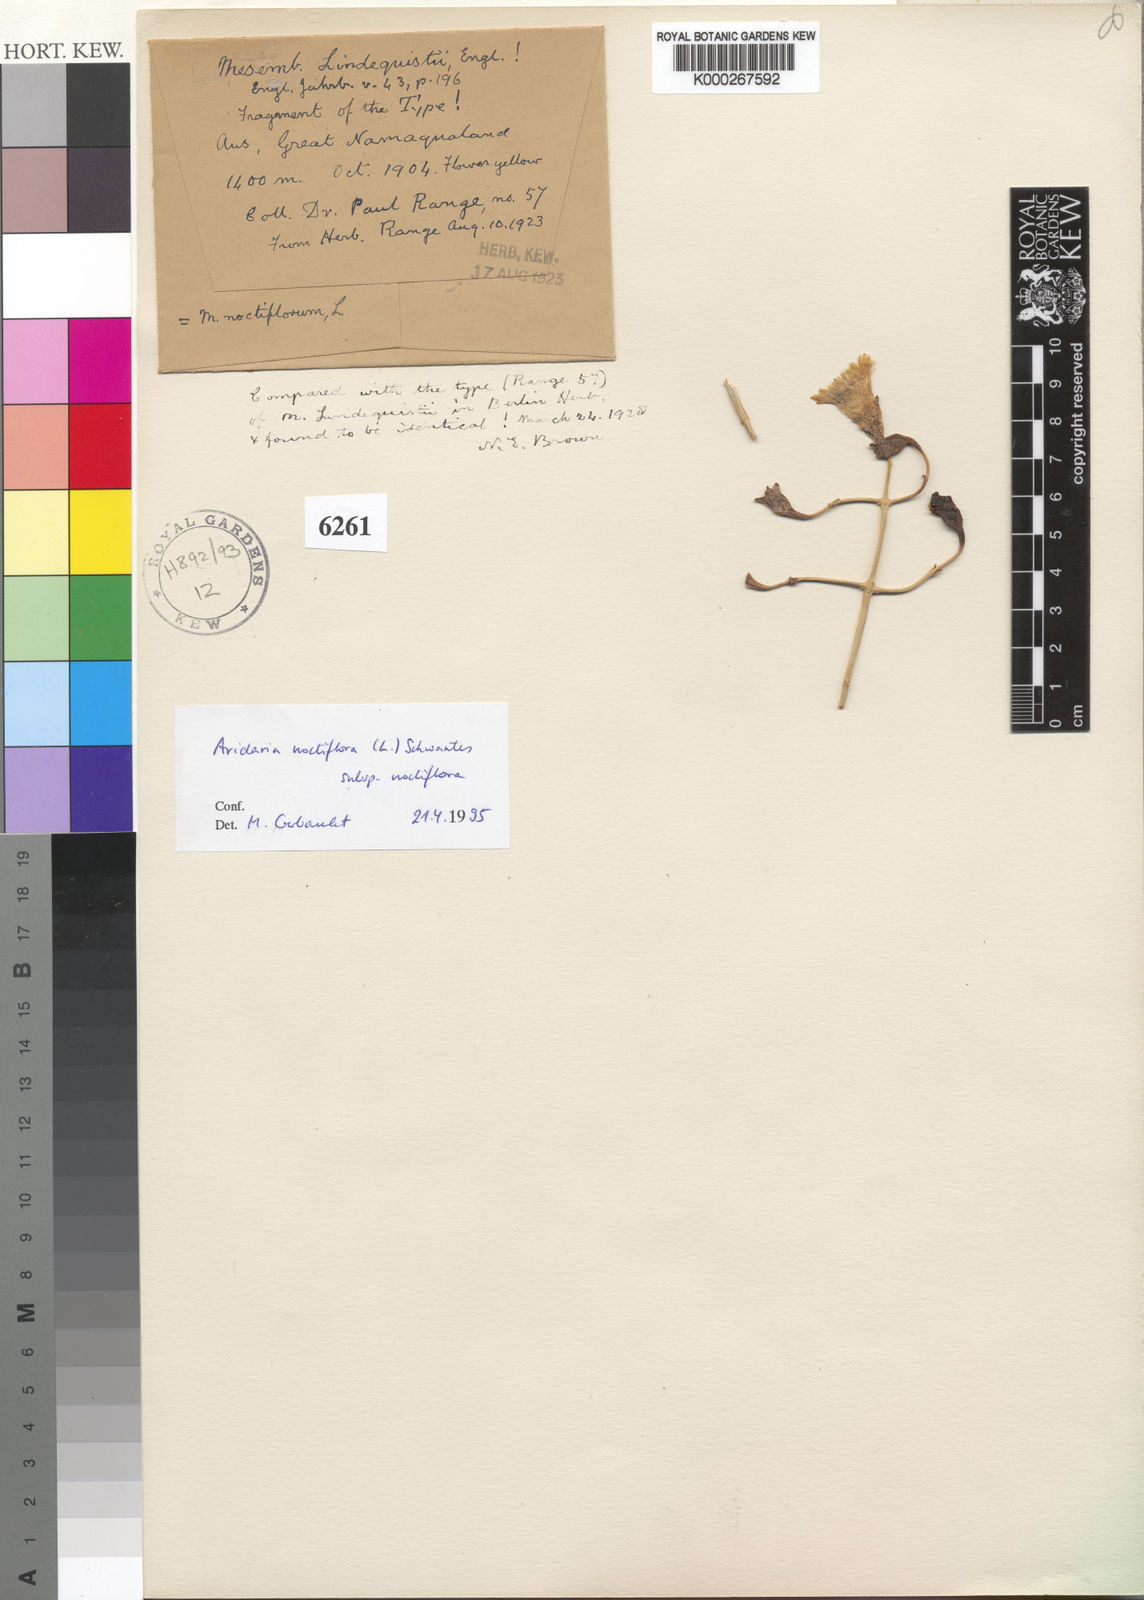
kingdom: Plantae
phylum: Tracheophyta
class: Magnoliopsida
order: Caryophyllales
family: Aizoaceae
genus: Mesembryanthemum
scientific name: Mesembryanthemum noctiflorum
